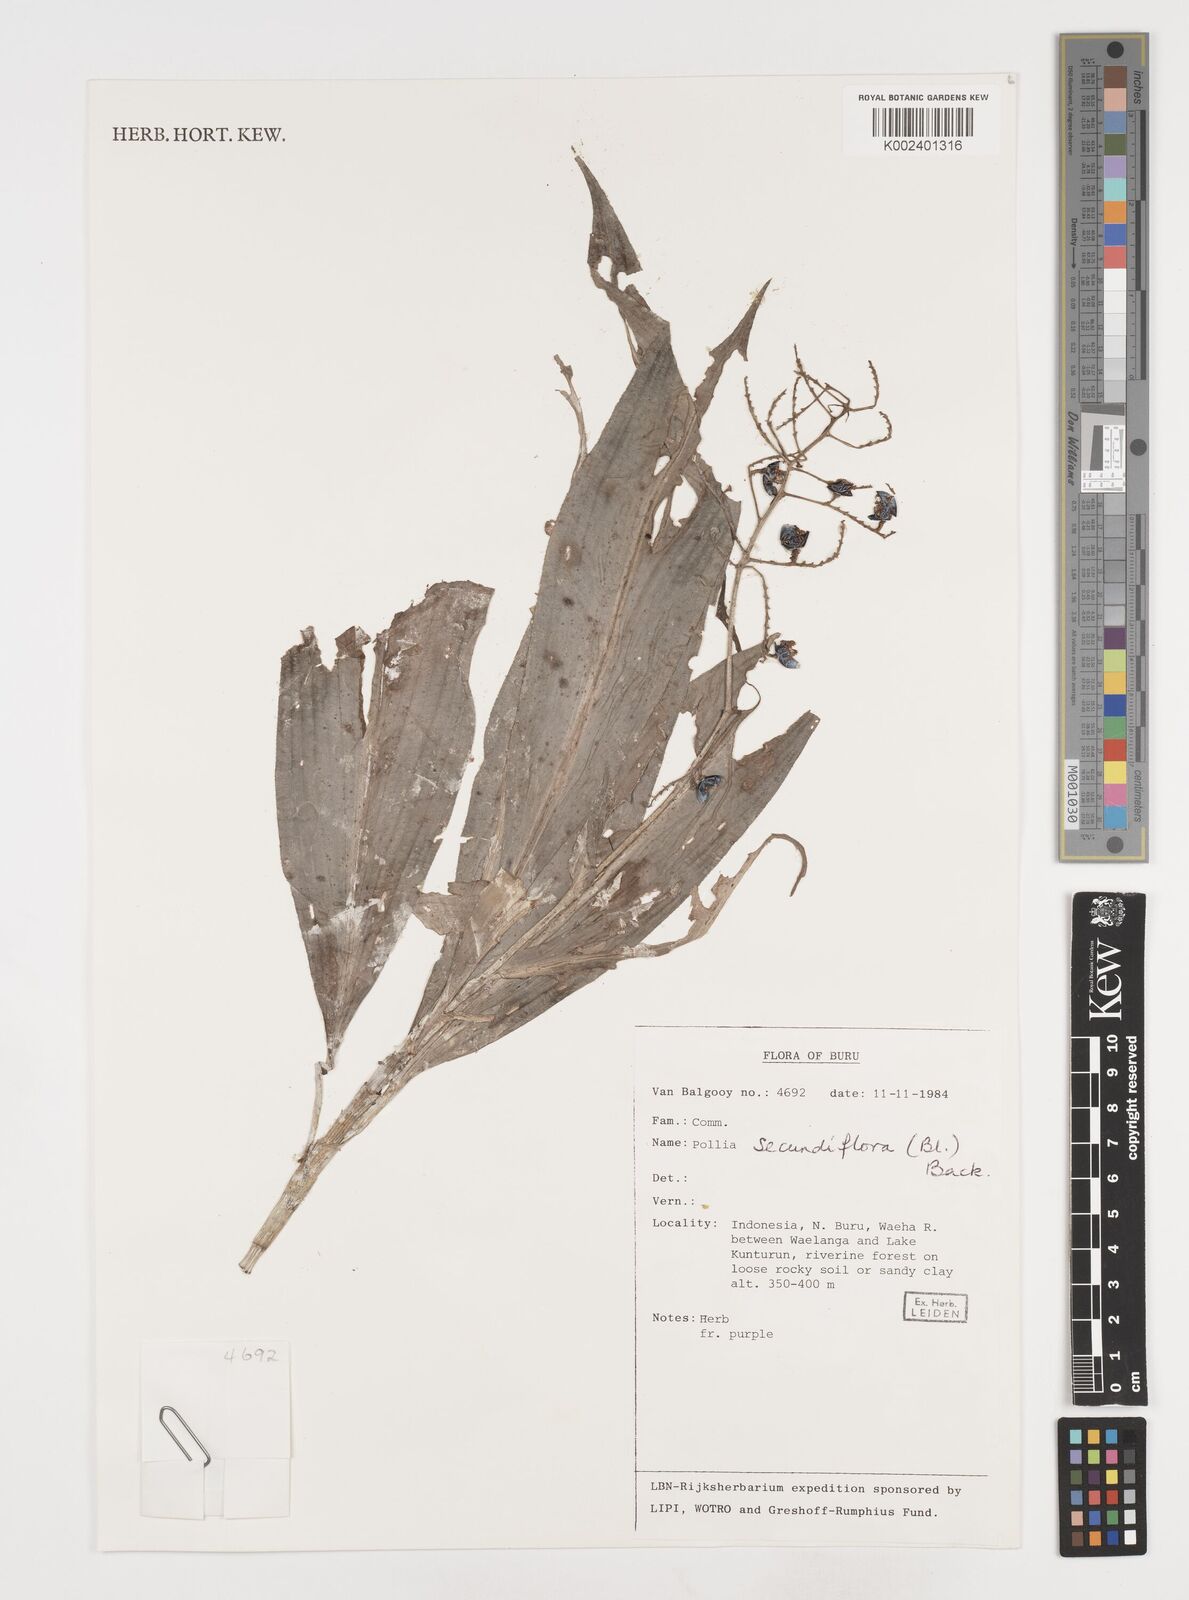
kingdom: Plantae
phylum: Tracheophyta
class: Liliopsida
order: Commelinales
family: Commelinaceae
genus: Pollia
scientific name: Pollia secundiflora
